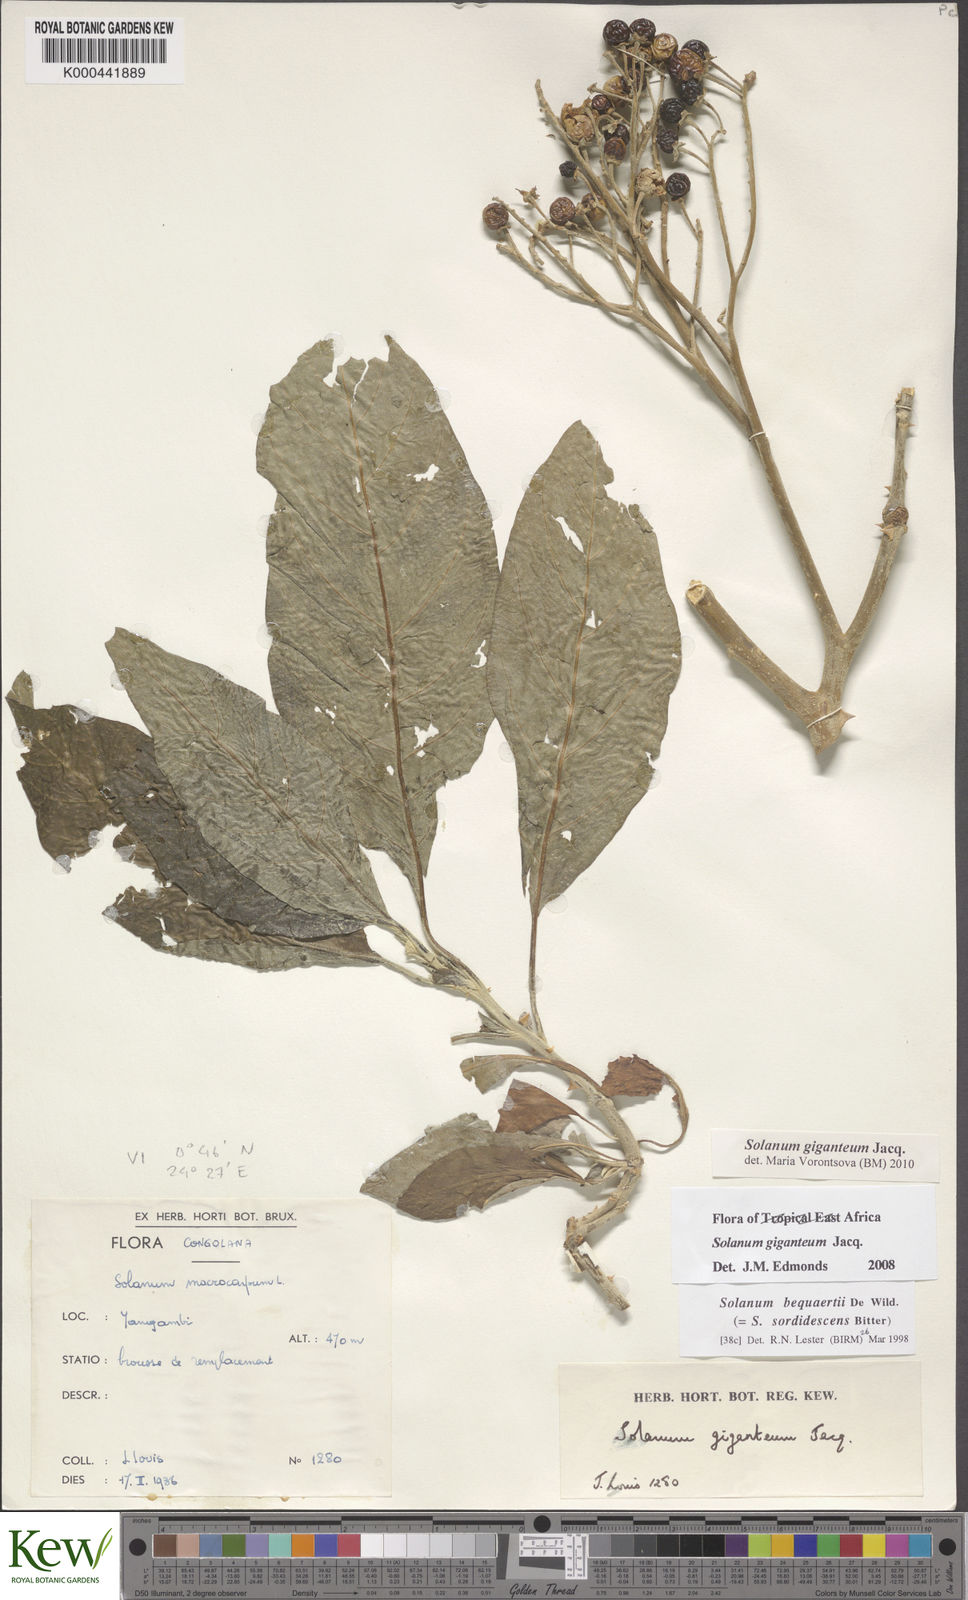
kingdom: Plantae
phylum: Tracheophyta
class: Magnoliopsida
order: Solanales
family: Solanaceae
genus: Solanum
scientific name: Solanum giganteum
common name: Healing-leaf-tree
